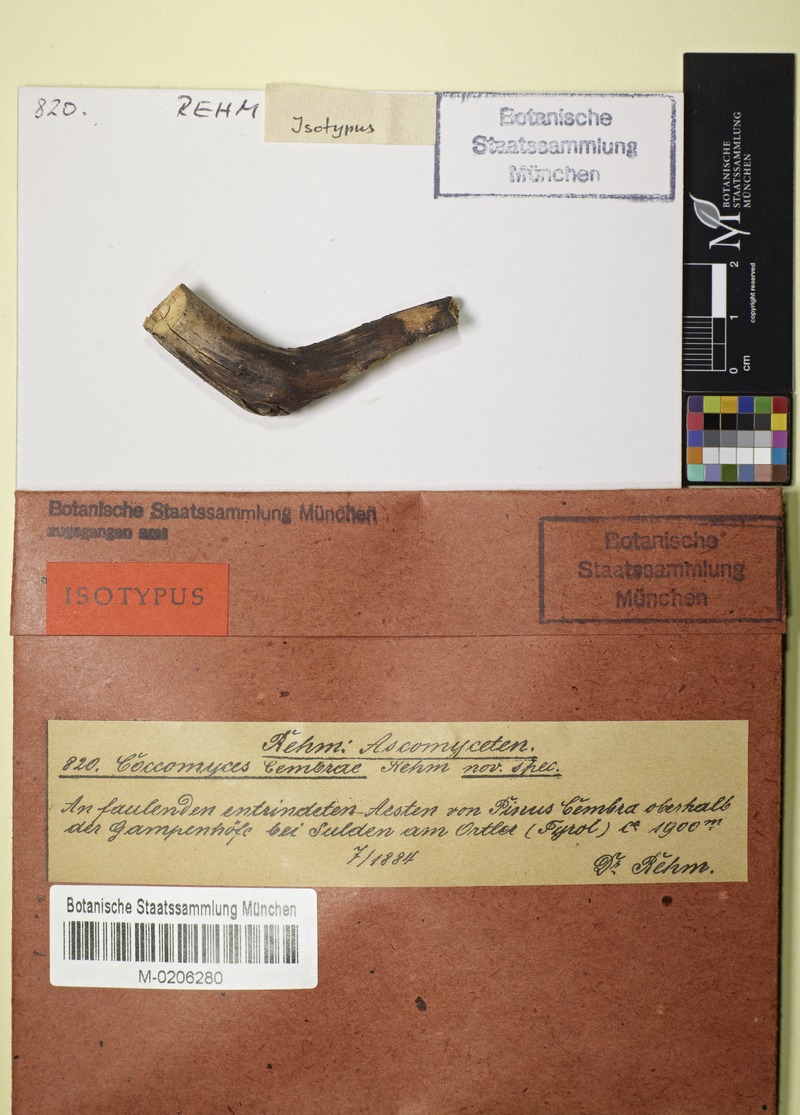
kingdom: Fungi
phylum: Ascomycota
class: Leotiomycetes
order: Rhytismatales
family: Rhytismataceae
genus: Coccomyces
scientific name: Coccomyces cembrae
